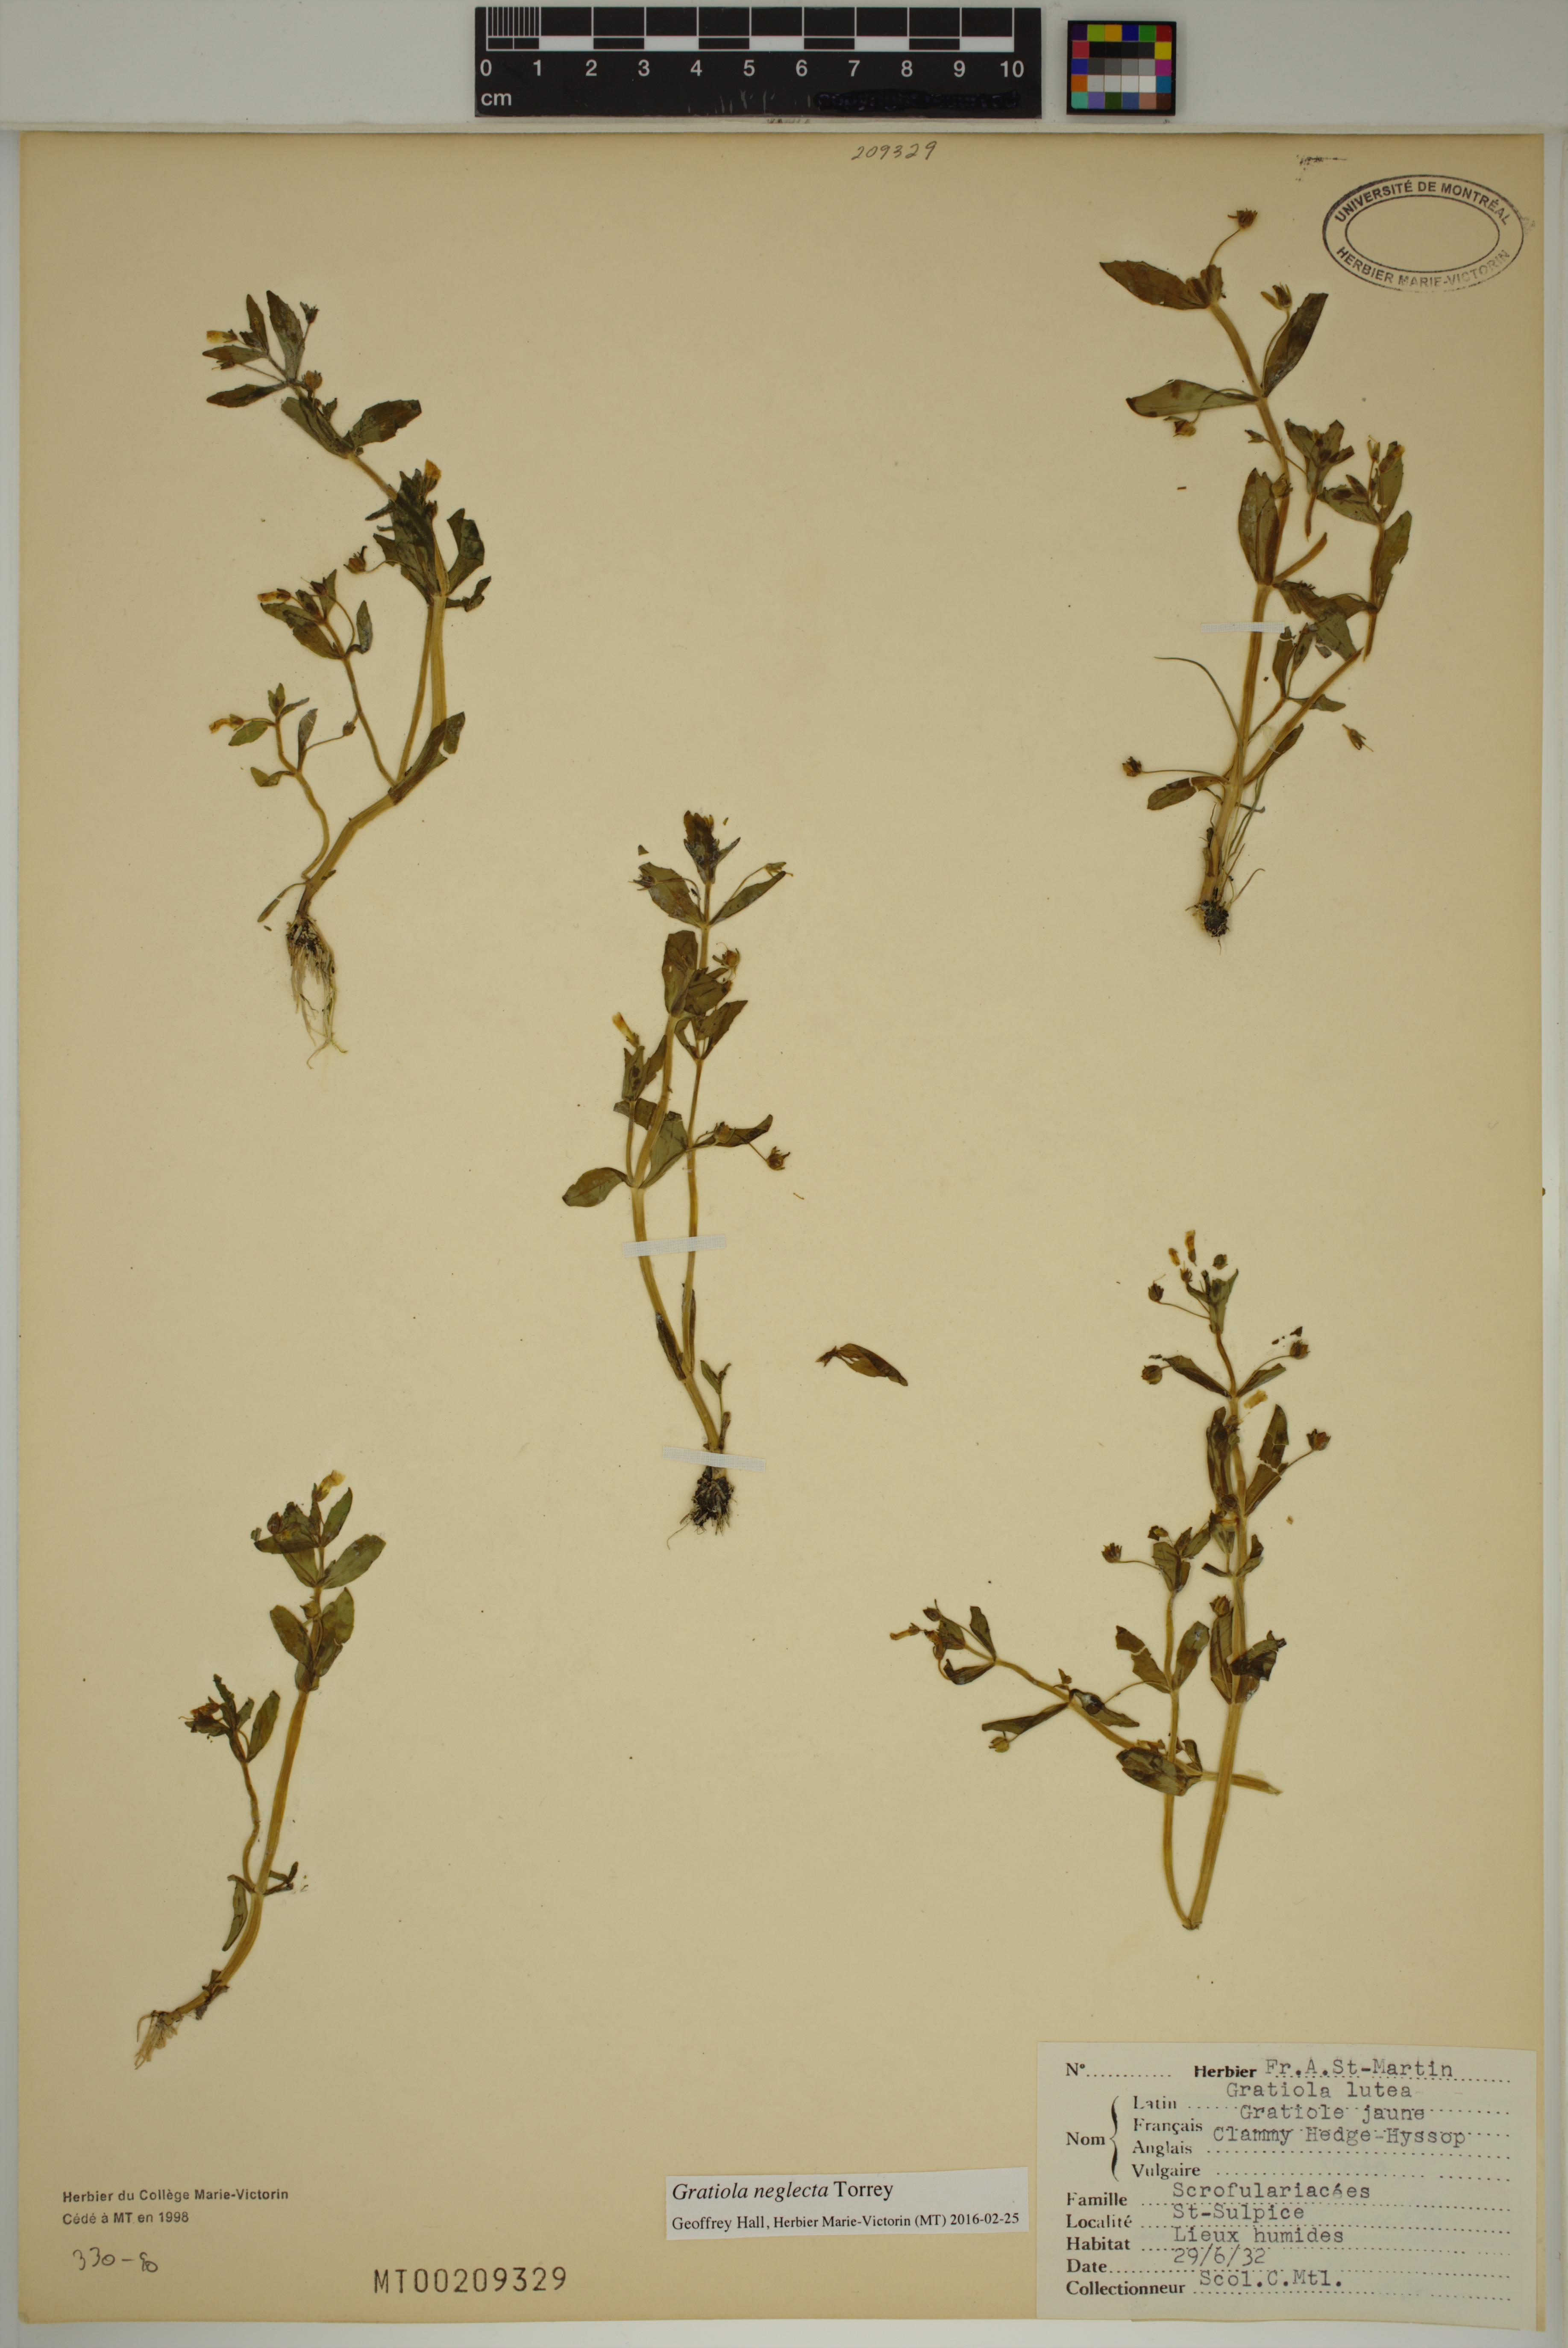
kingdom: Plantae
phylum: Tracheophyta
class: Magnoliopsida
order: Lamiales
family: Plantaginaceae
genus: Gratiola
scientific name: Gratiola neglecta
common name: American hedge-hyssop
